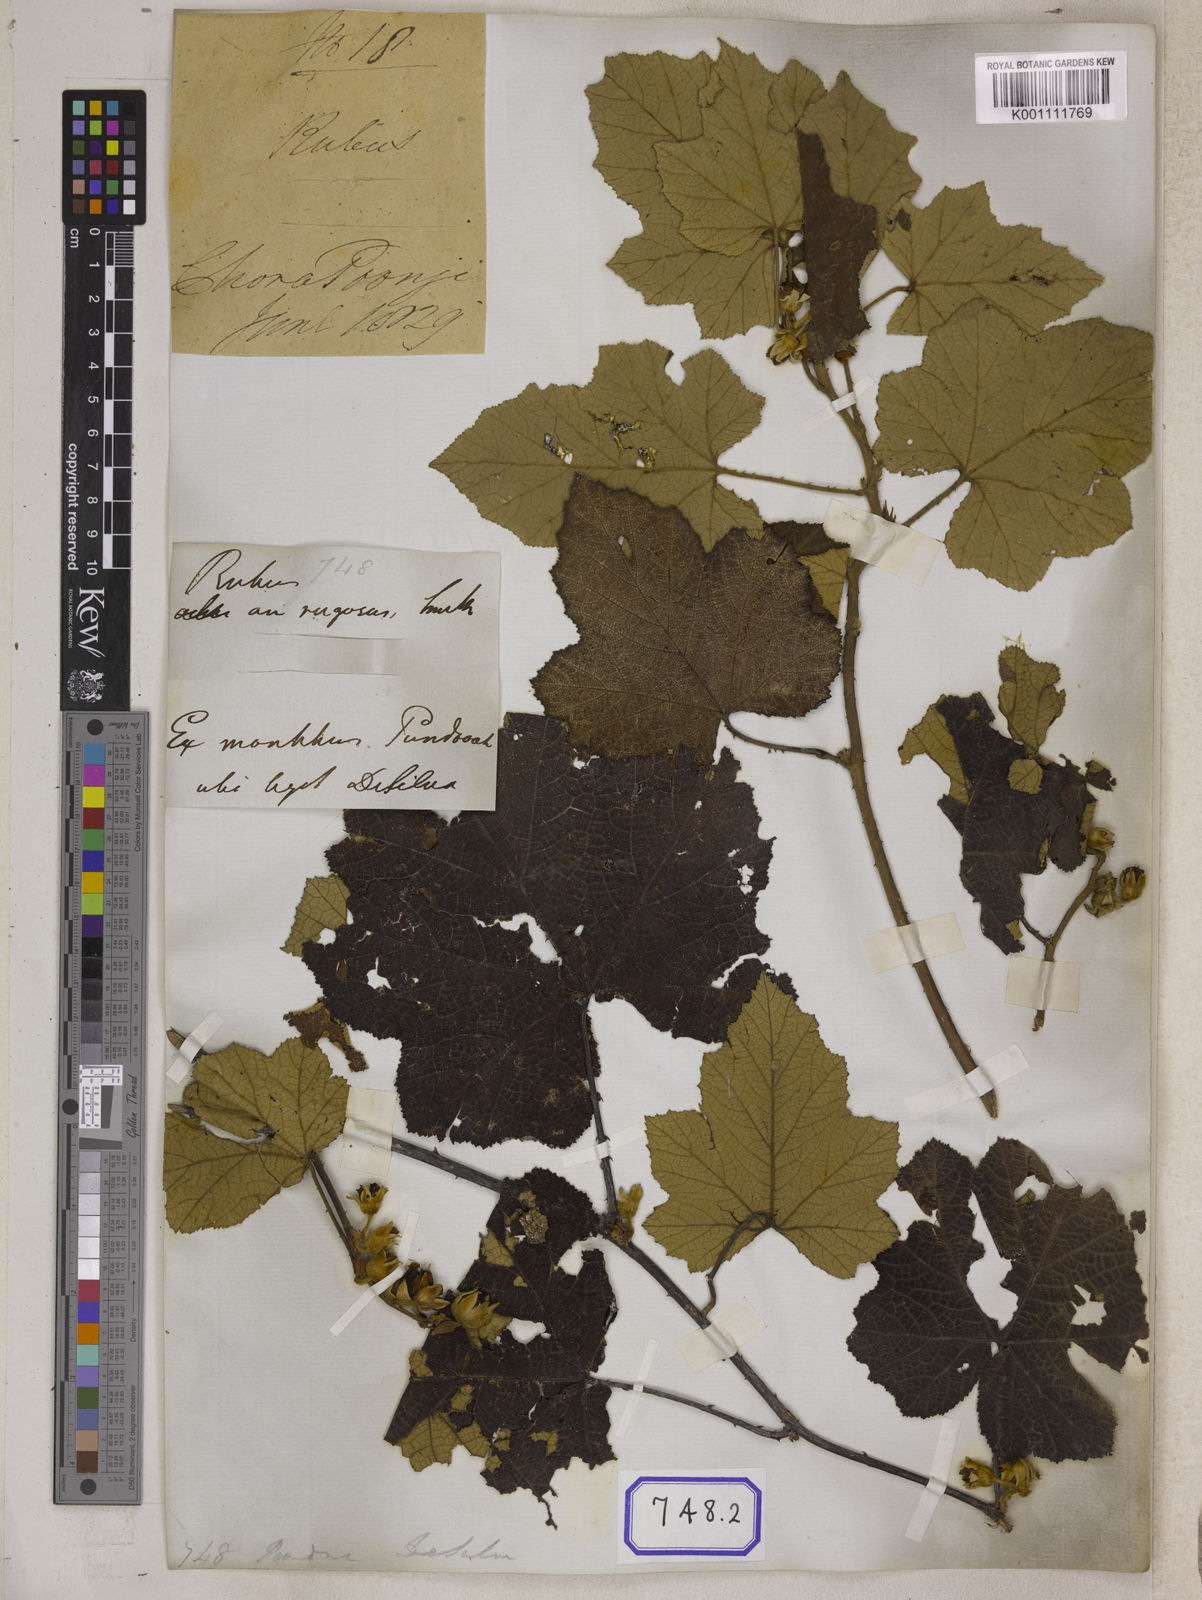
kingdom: Plantae
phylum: Tracheophyta
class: Magnoliopsida
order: Rosales
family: Rosaceae
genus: Rubus
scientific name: Rubus
